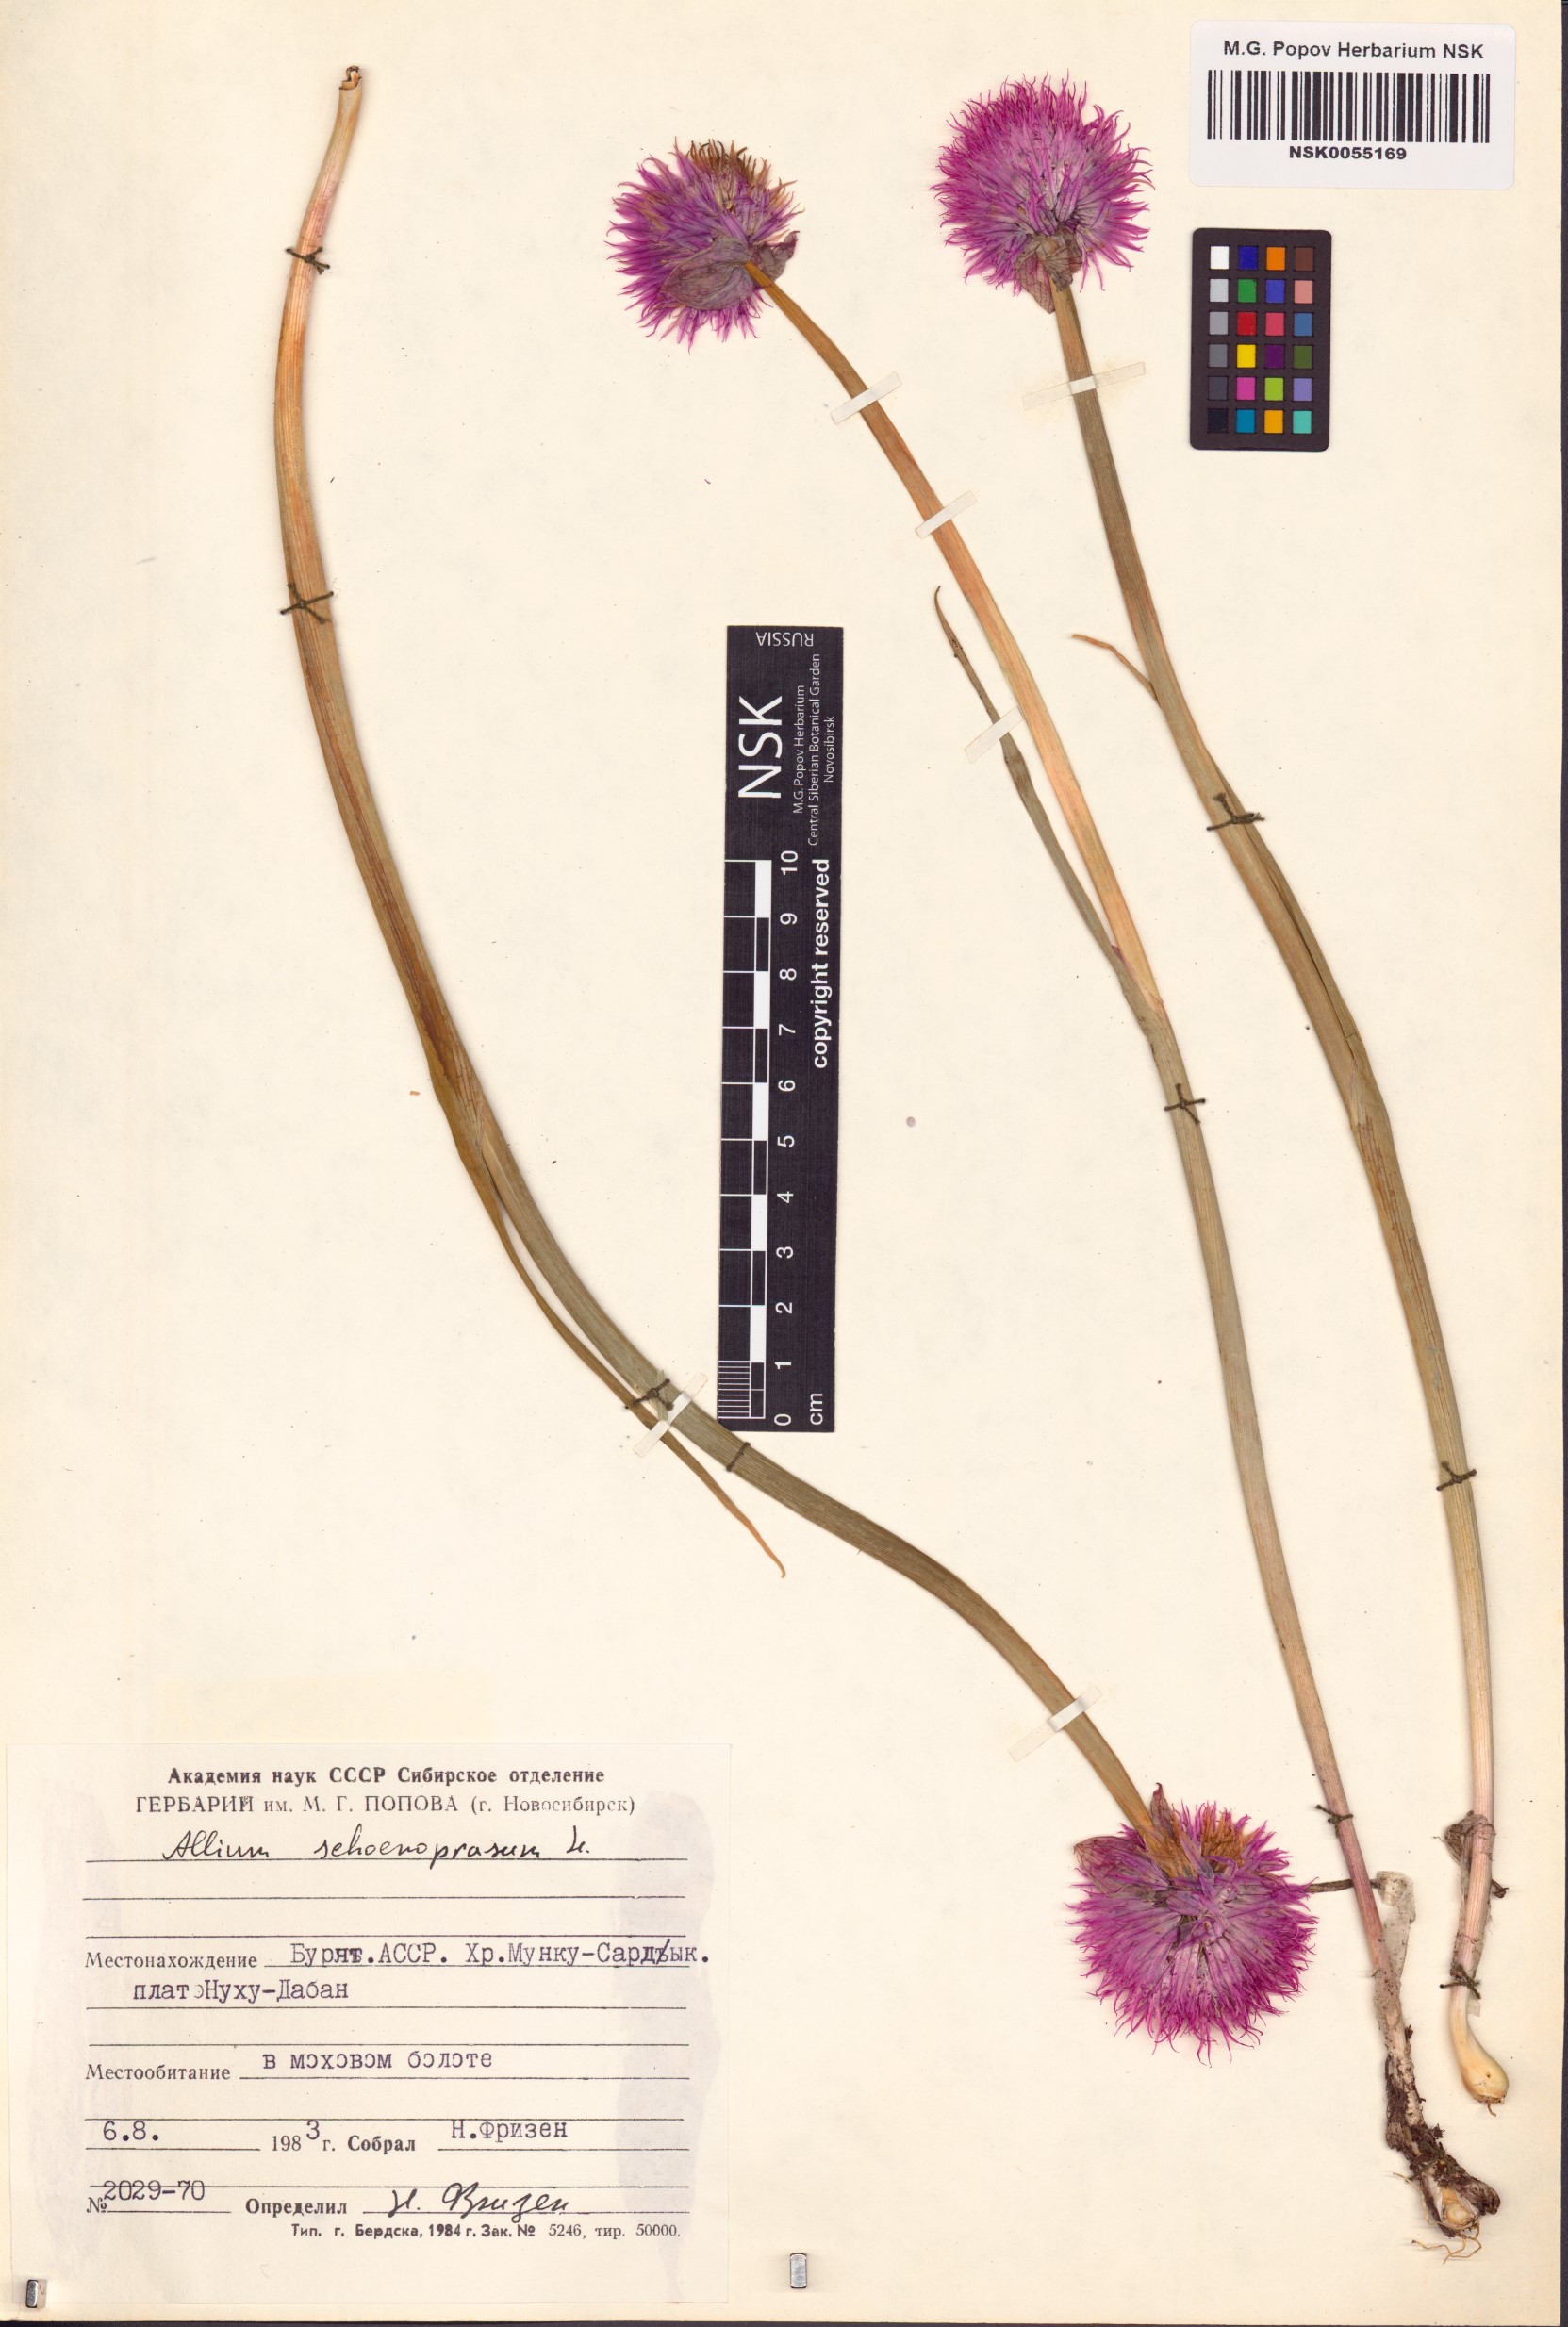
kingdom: Plantae
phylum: Tracheophyta
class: Liliopsida
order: Asparagales
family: Amaryllidaceae
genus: Allium
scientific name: Allium schoenoprasum
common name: Chives
